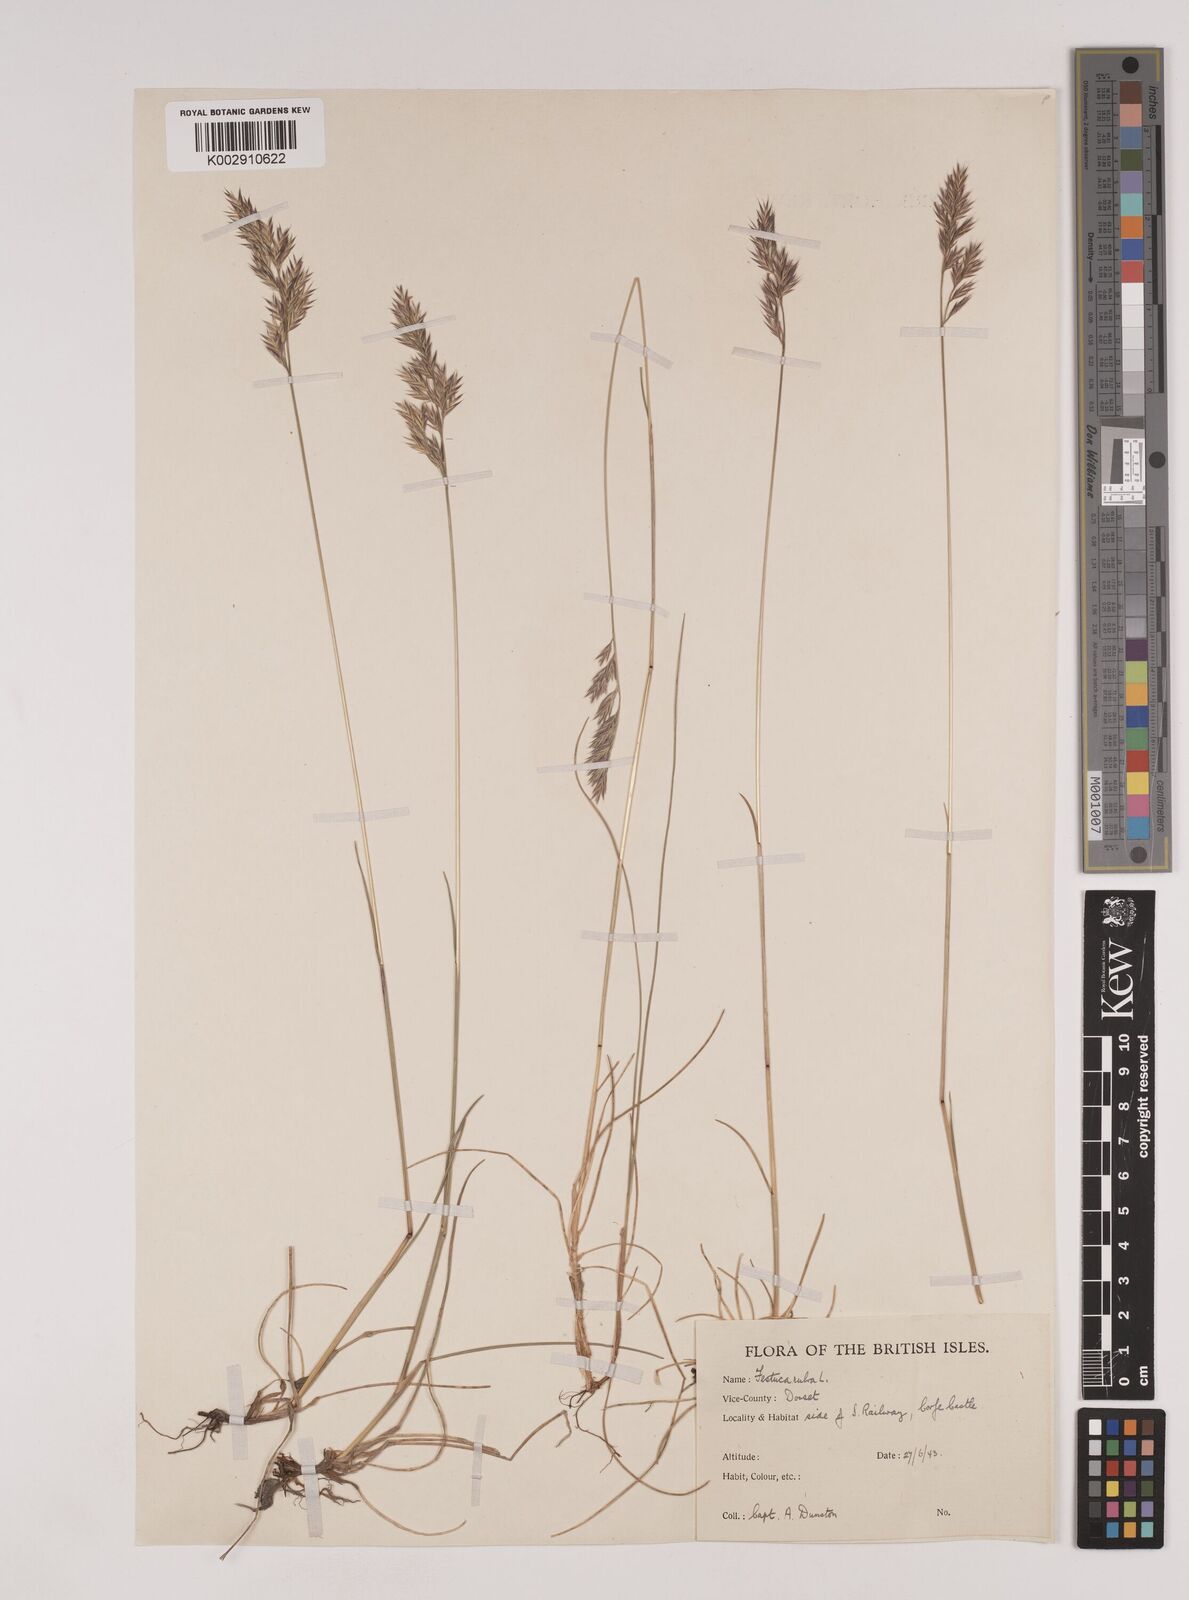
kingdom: Plantae
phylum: Tracheophyta
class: Liliopsida
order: Poales
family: Poaceae
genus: Festuca
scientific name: Festuca rubra
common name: Red fescue
